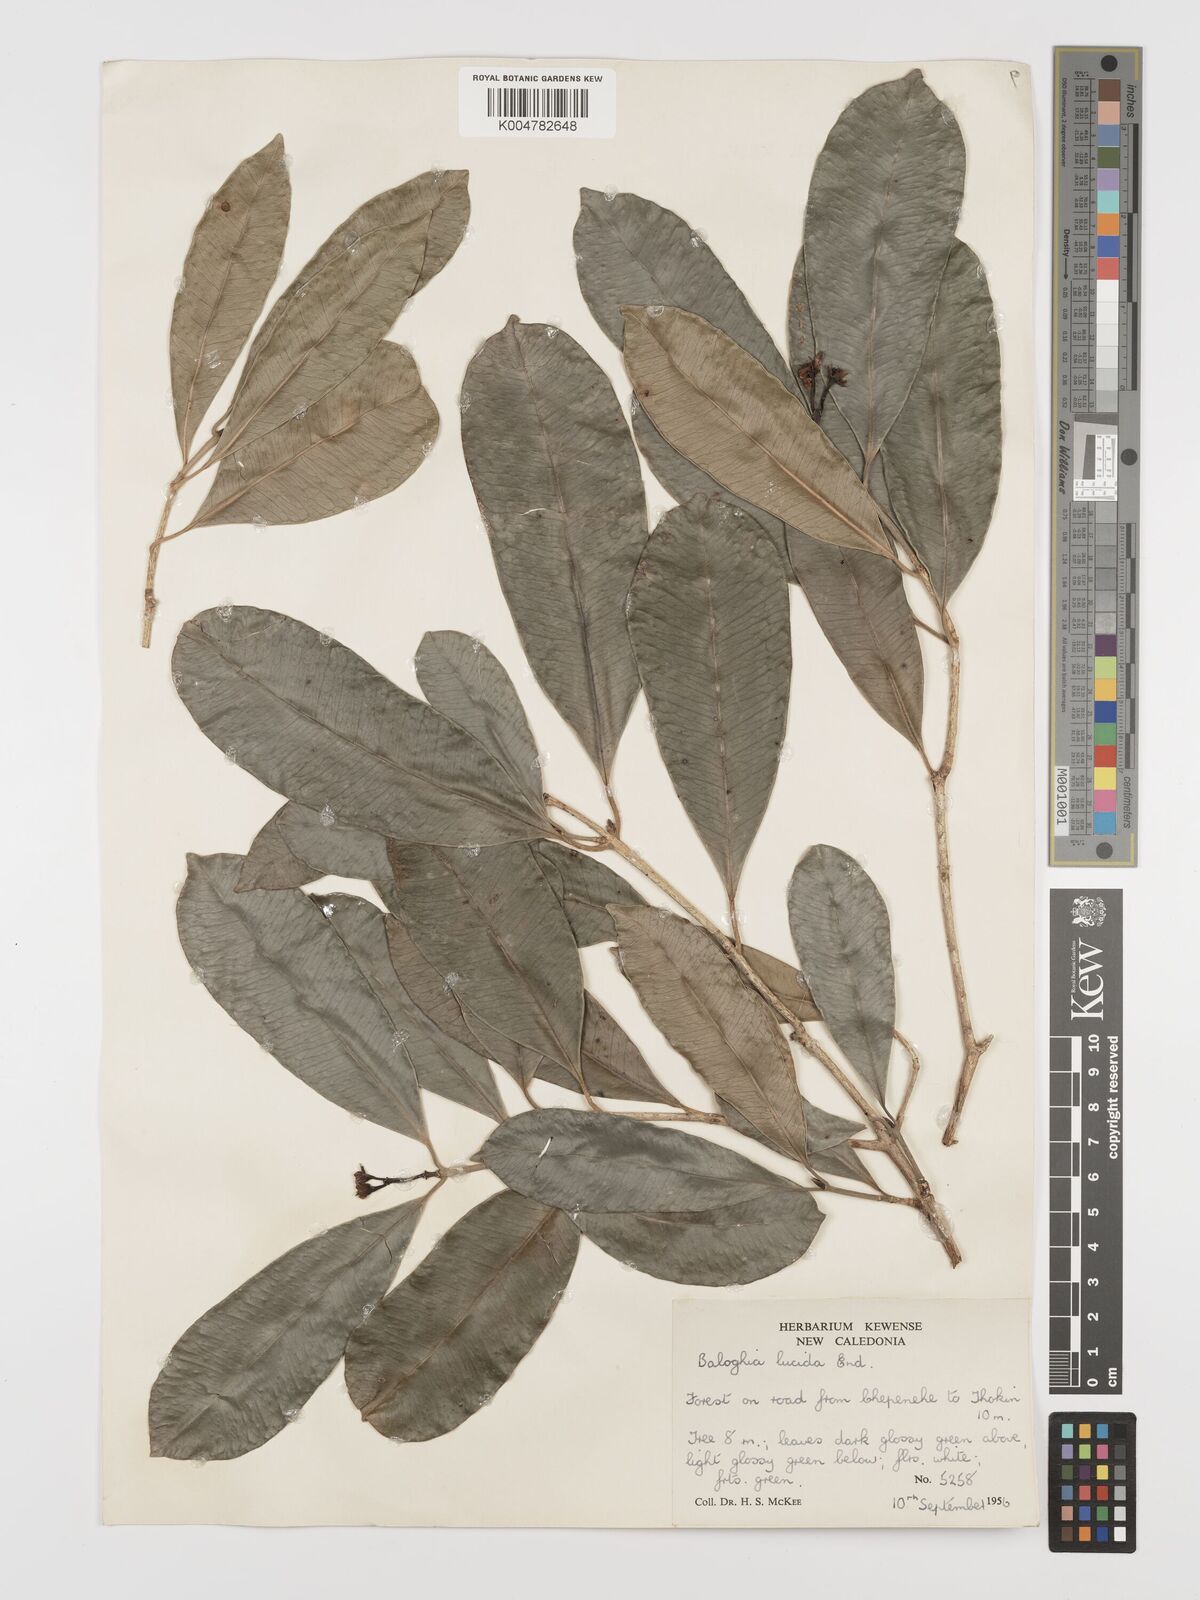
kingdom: Plantae
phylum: Tracheophyta
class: Magnoliopsida
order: Malpighiales
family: Euphorbiaceae
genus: Baloghia
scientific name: Baloghia inophylla
